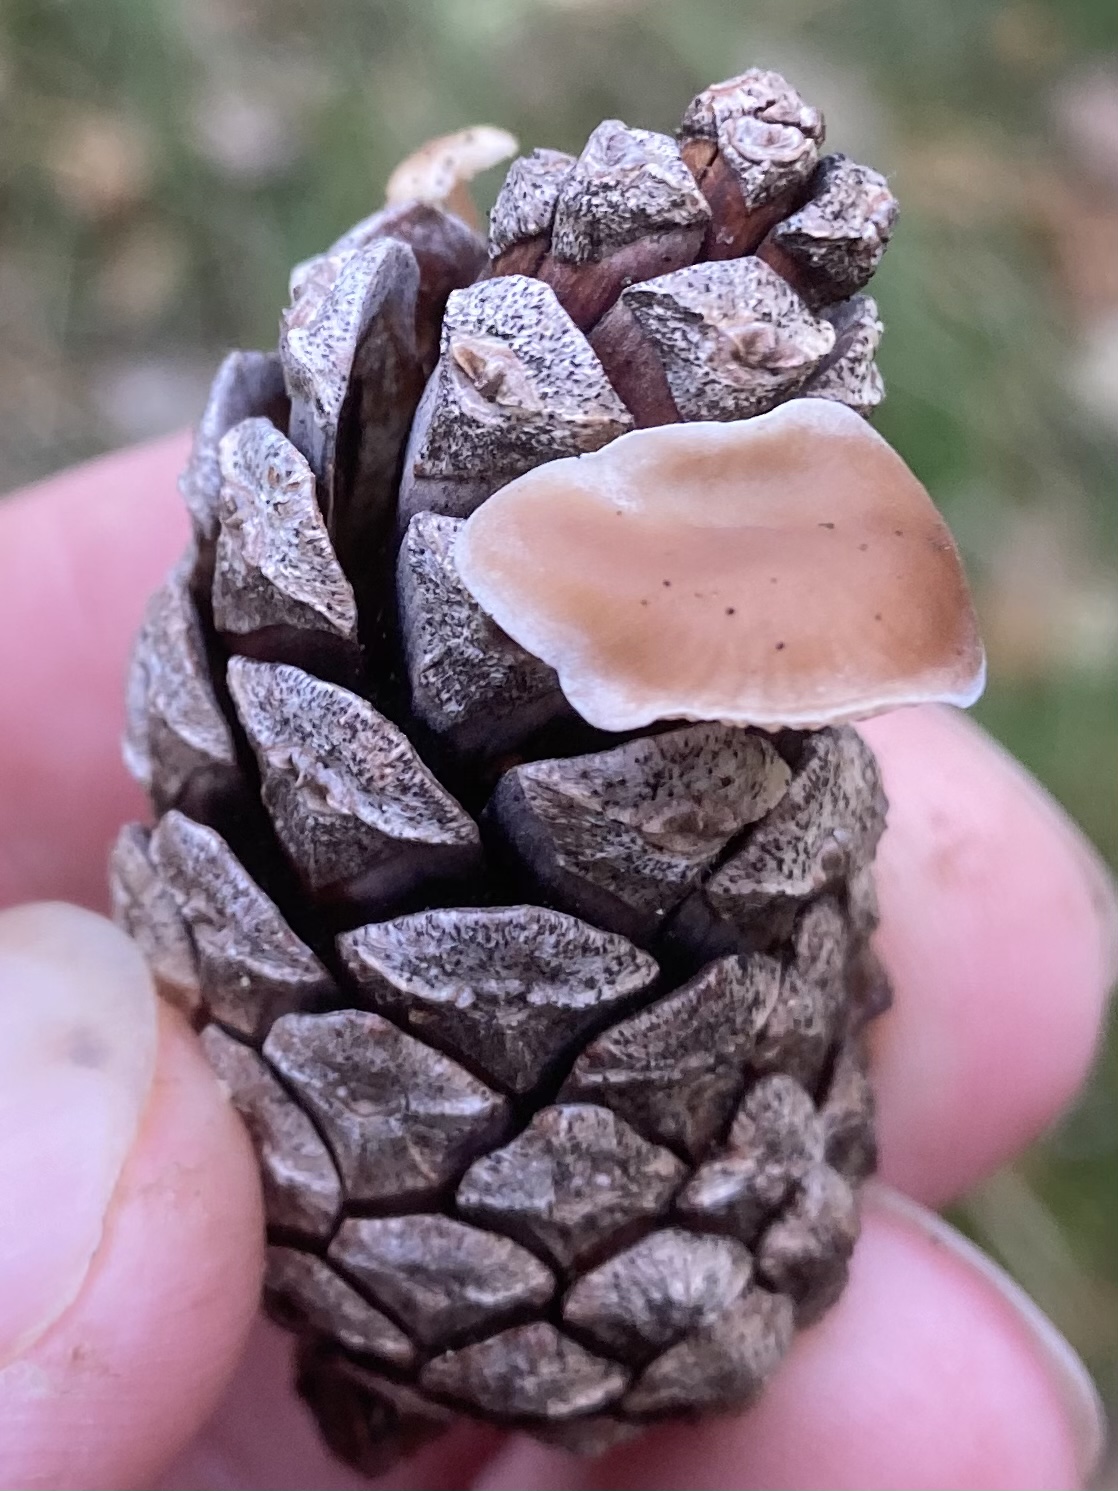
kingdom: Fungi
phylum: Basidiomycota
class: Agaricomycetes
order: Agaricales
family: Marasmiaceae
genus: Baeospora
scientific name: Baeospora myosura
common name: koglebruskhat
